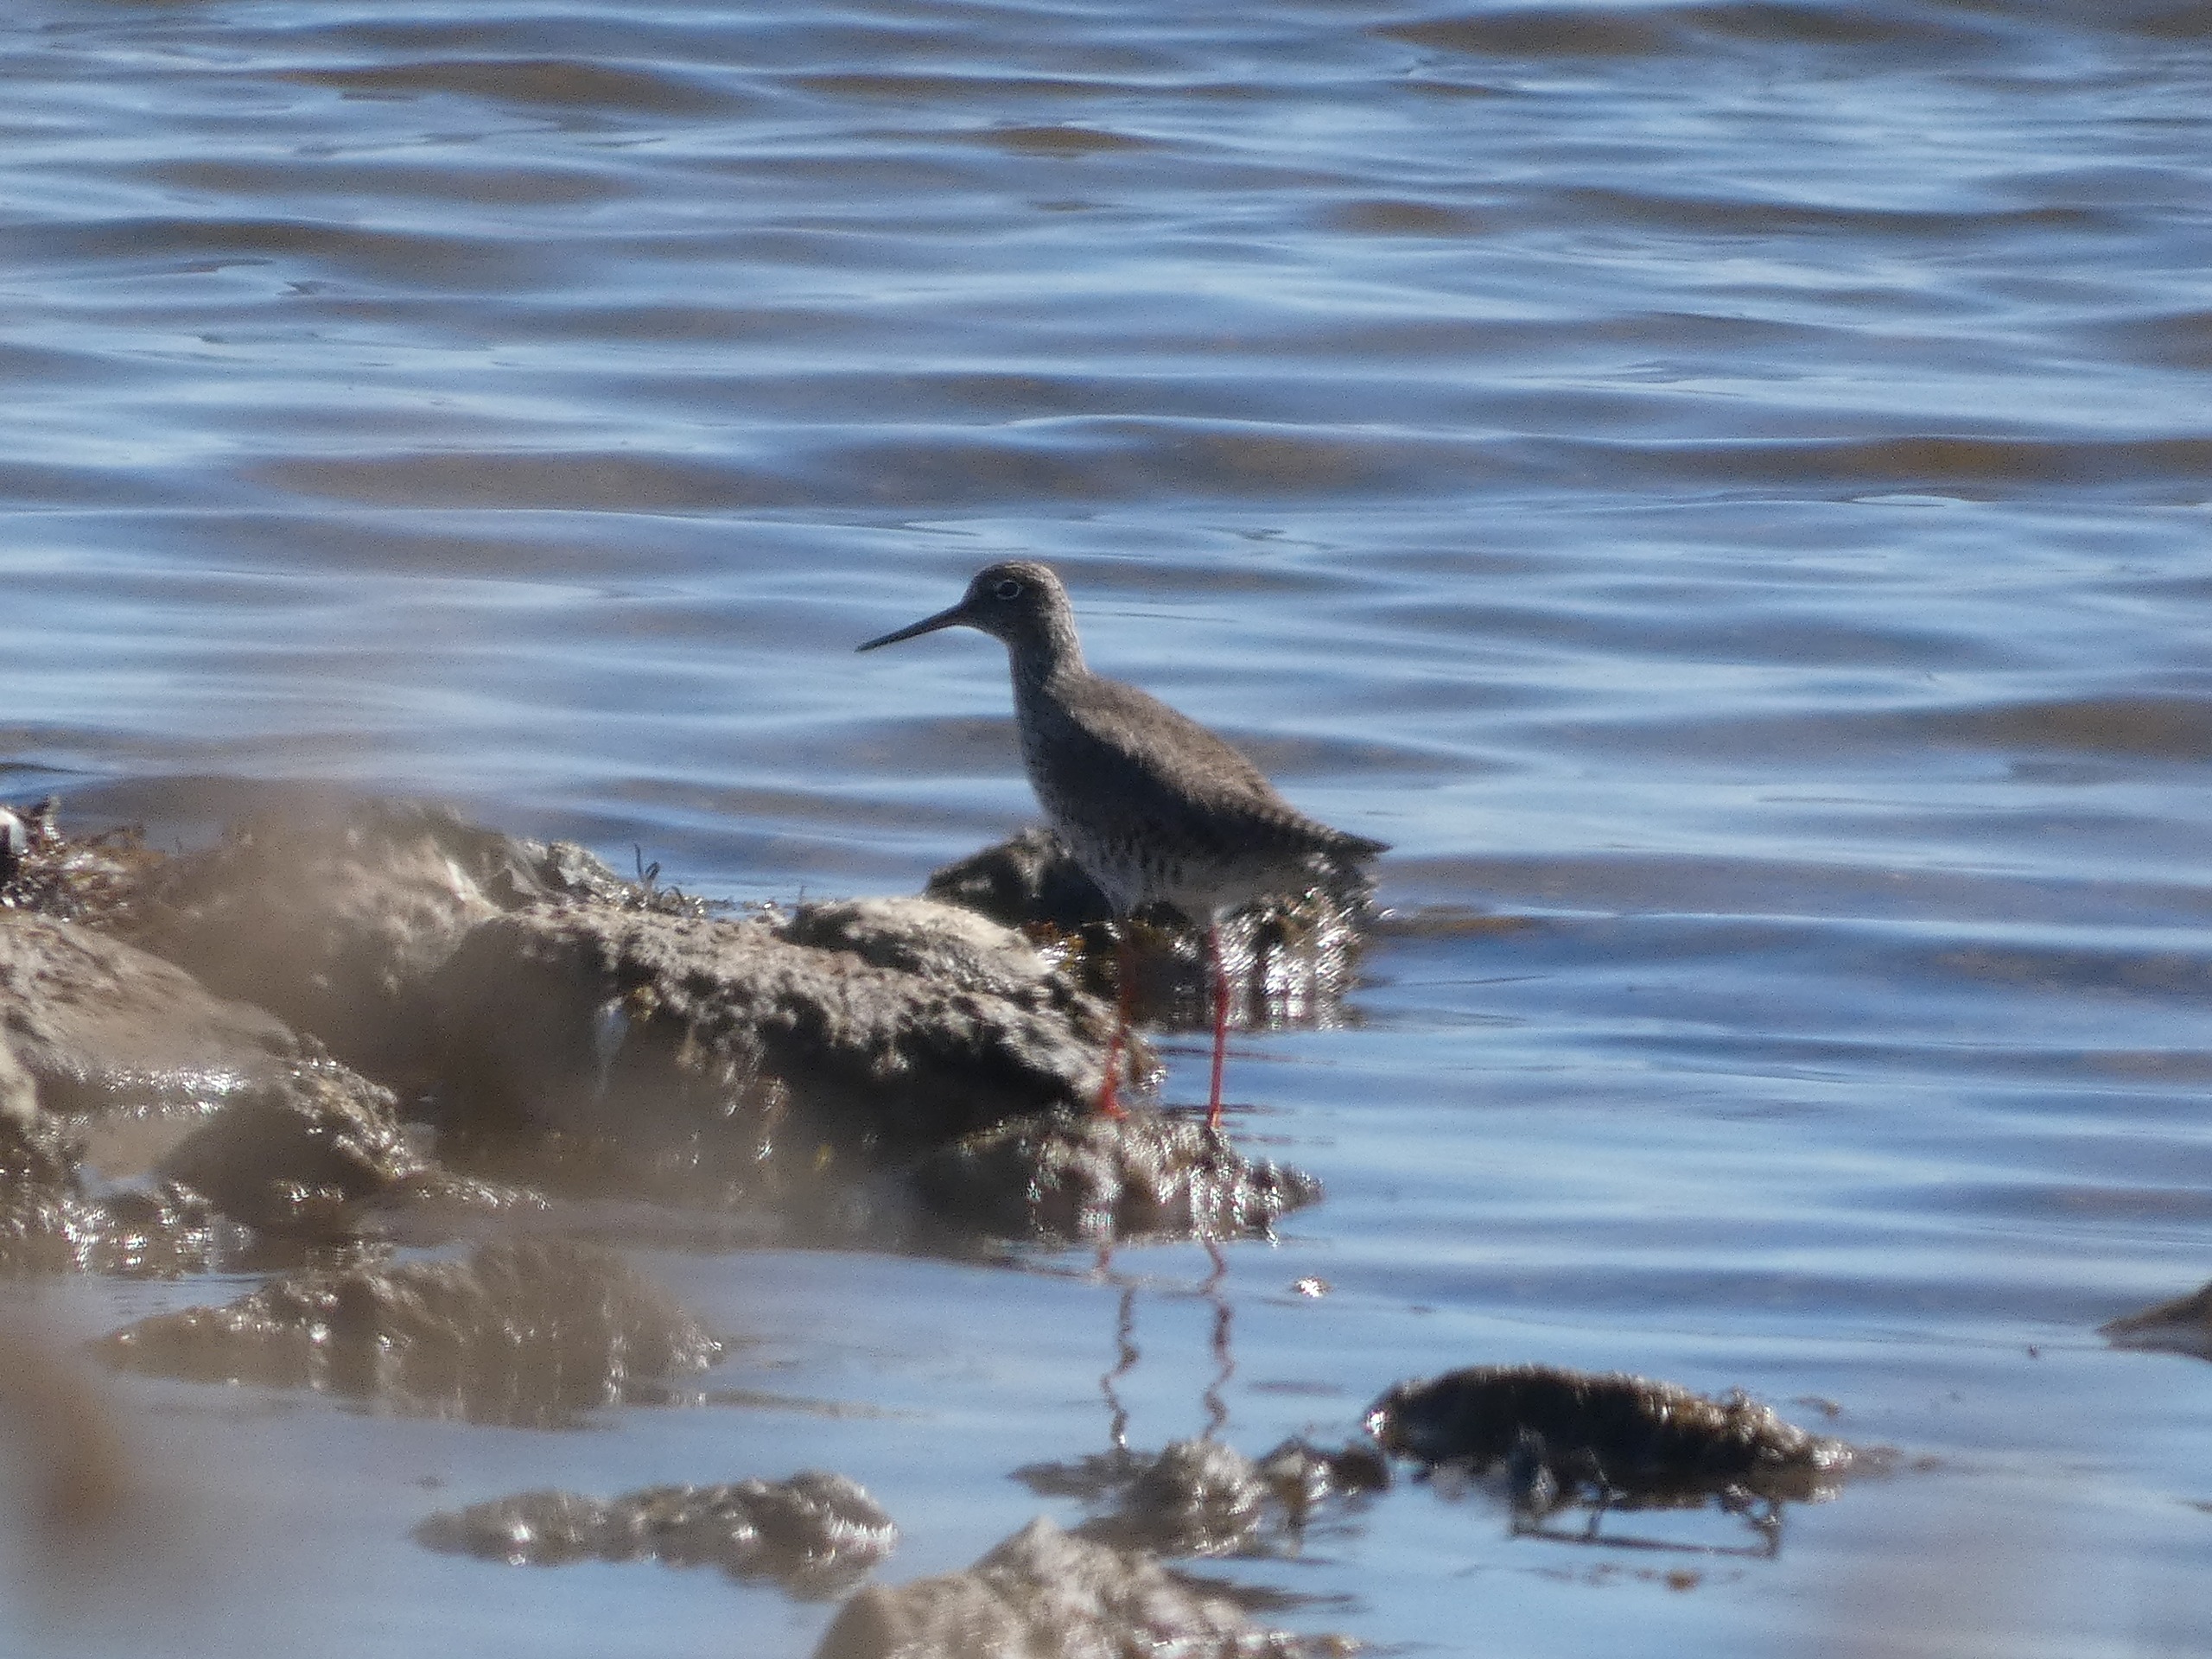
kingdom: Animalia
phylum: Chordata
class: Aves
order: Charadriiformes
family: Scolopacidae
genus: Tringa
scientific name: Tringa totanus
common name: Rødben
